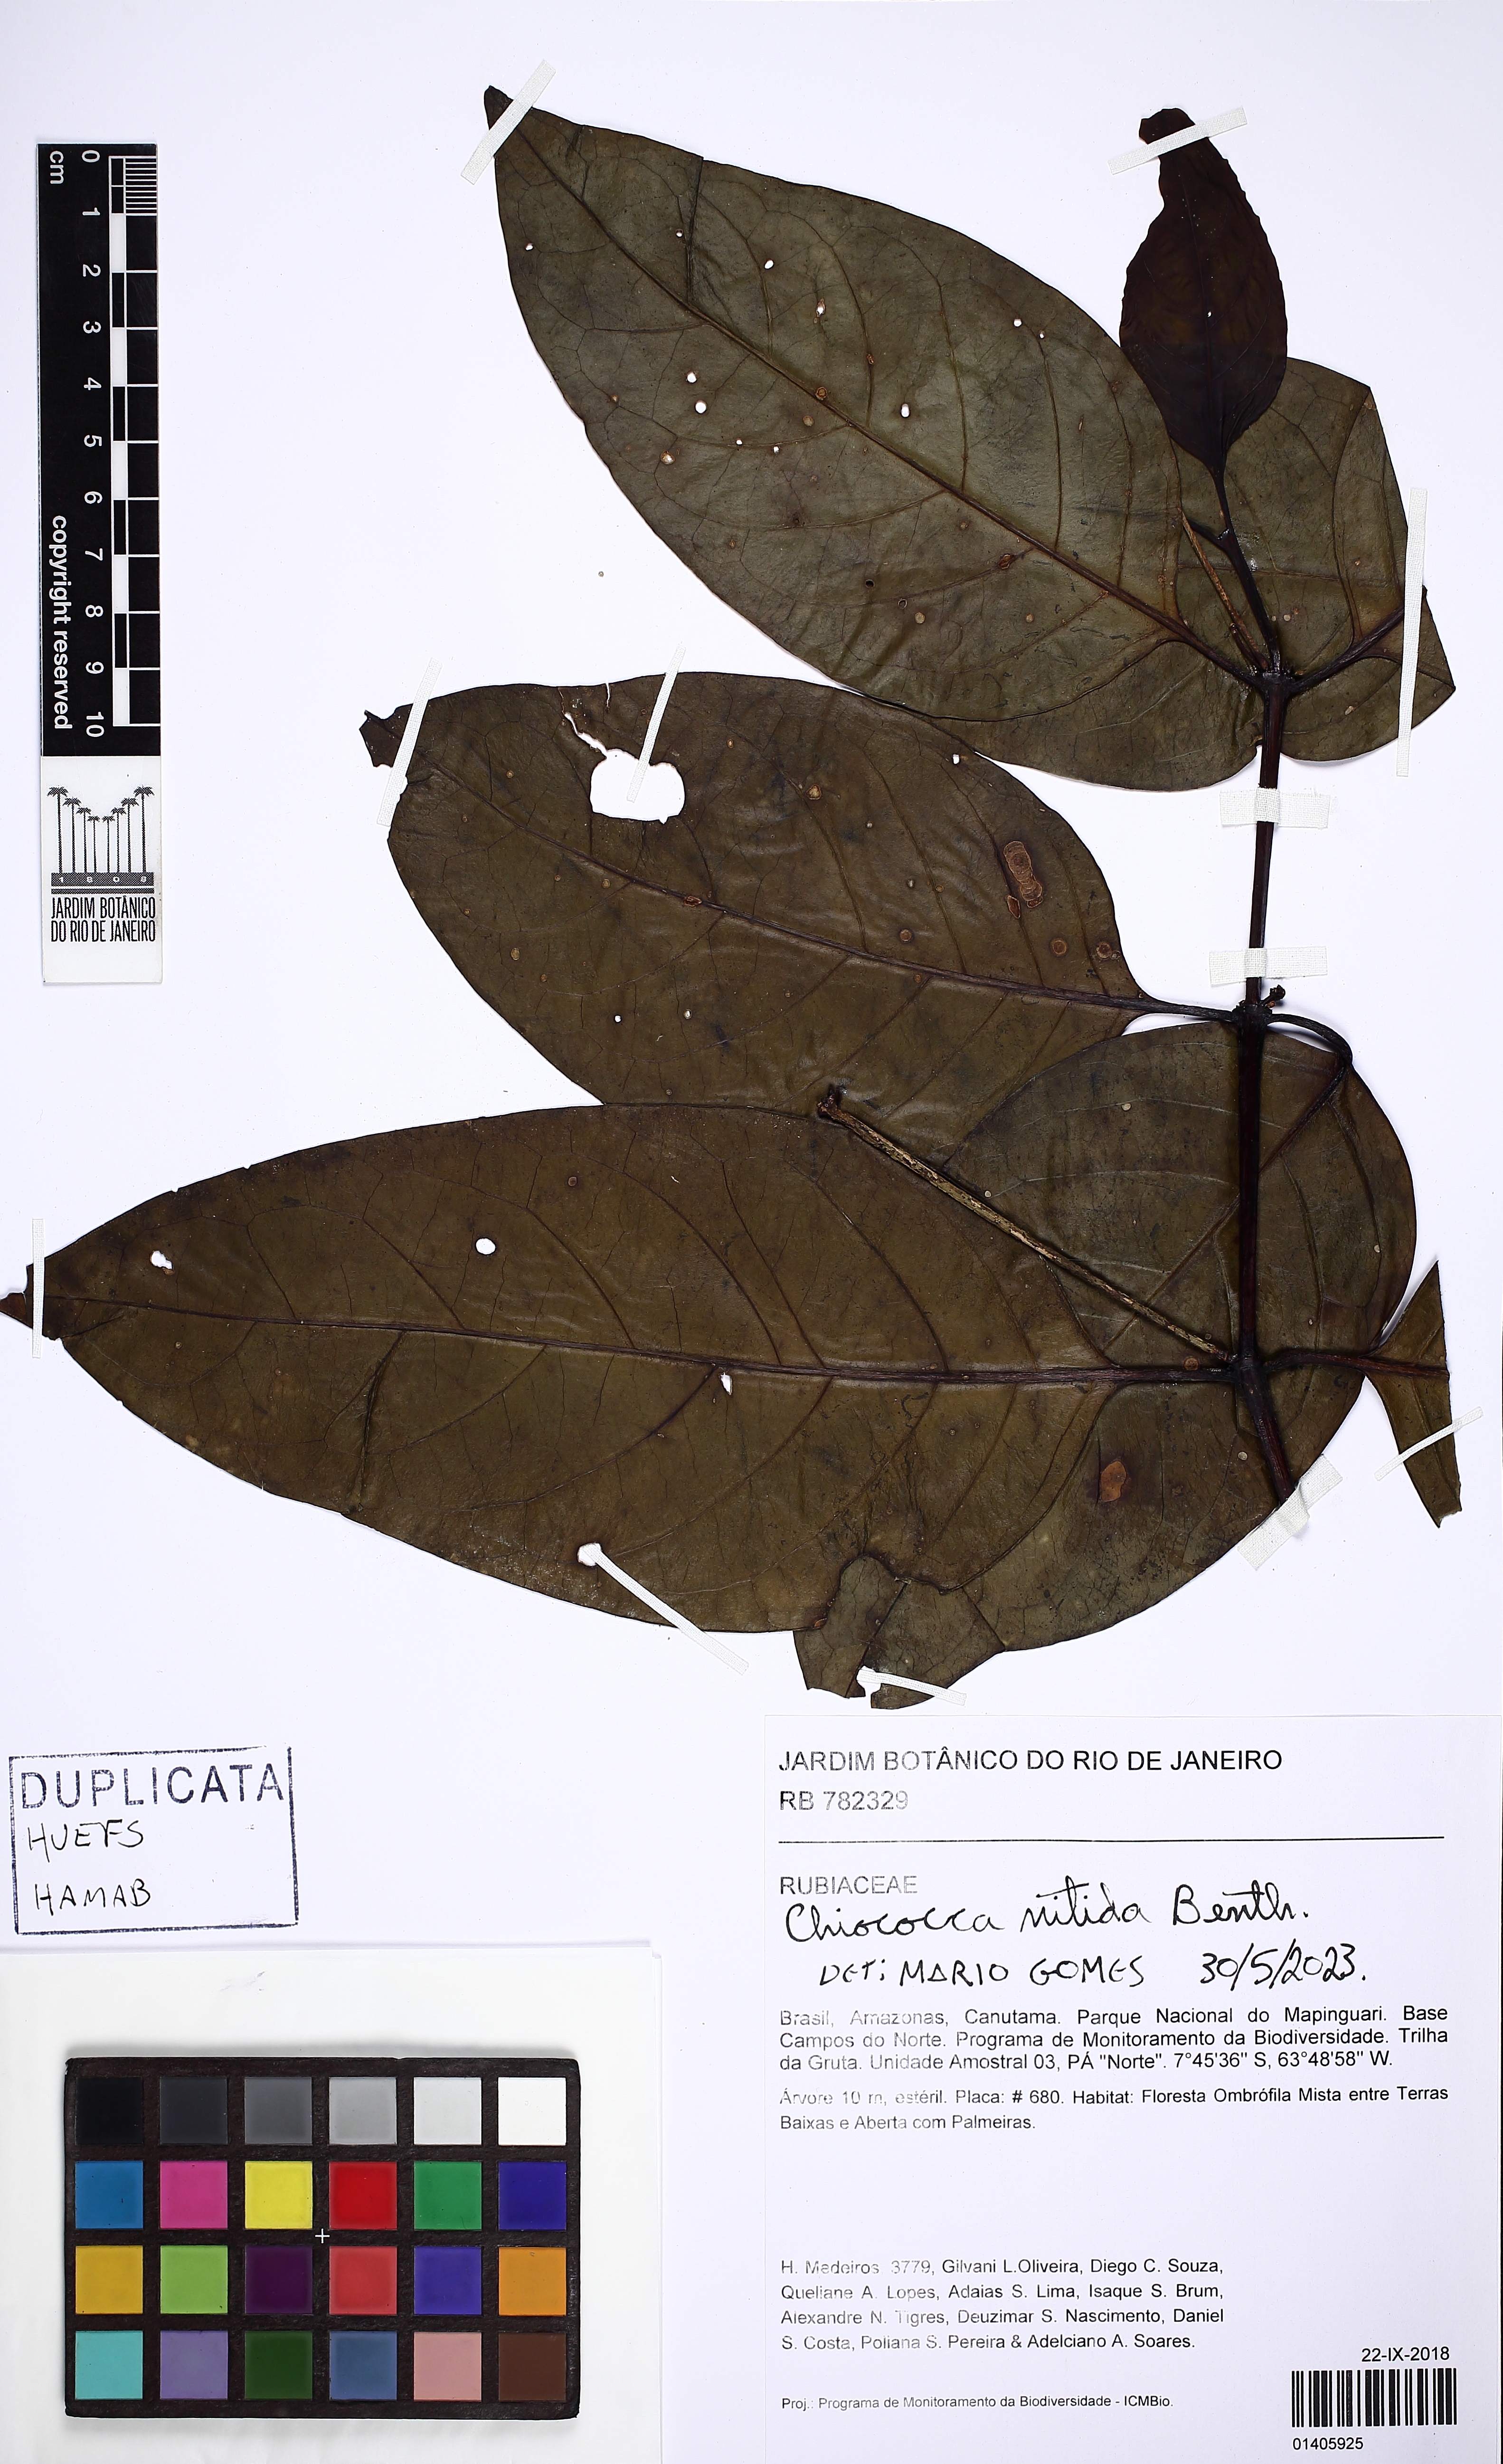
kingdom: Plantae
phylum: Tracheophyta
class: Magnoliopsida
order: Gentianales
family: Rubiaceae
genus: Chiococca
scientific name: Chiococca nitida
